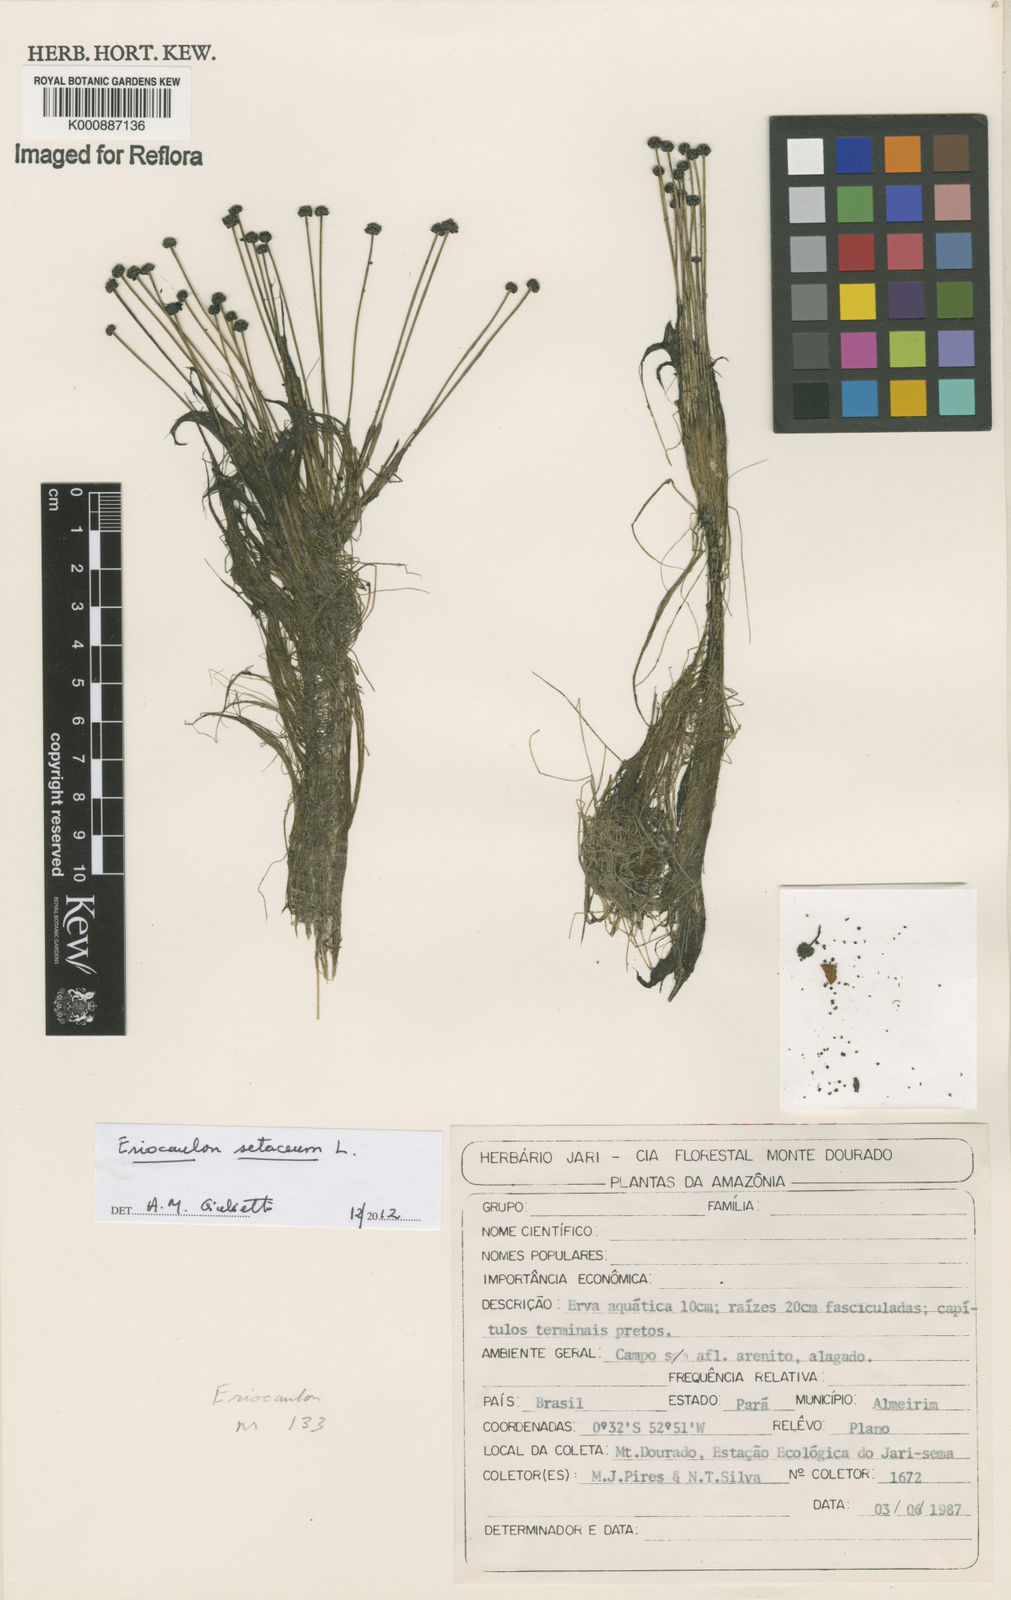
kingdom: Plantae
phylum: Tracheophyta
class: Liliopsida
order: Poales
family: Eriocaulaceae
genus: Eriocaulon
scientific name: Eriocaulon setaceum
